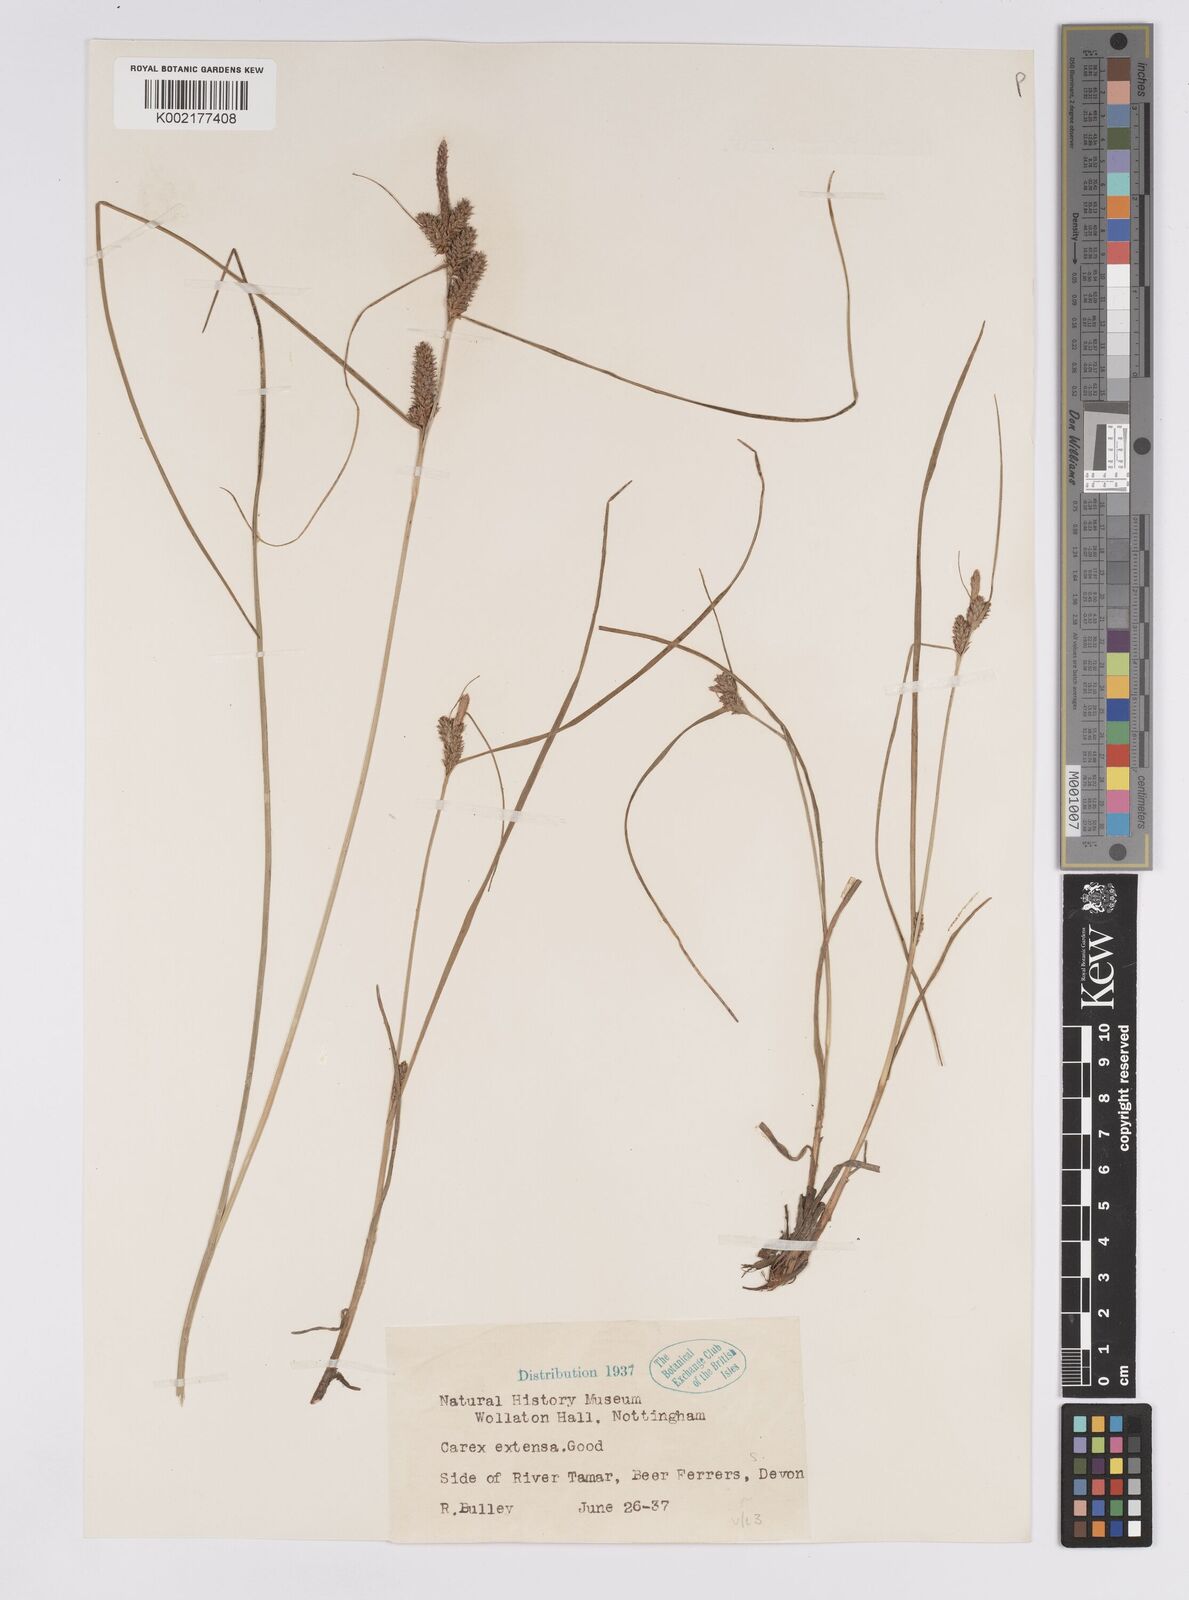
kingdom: Plantae
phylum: Tracheophyta
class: Liliopsida
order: Poales
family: Cyperaceae
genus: Carex
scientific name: Carex extensa
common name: Long-bracted sedge
